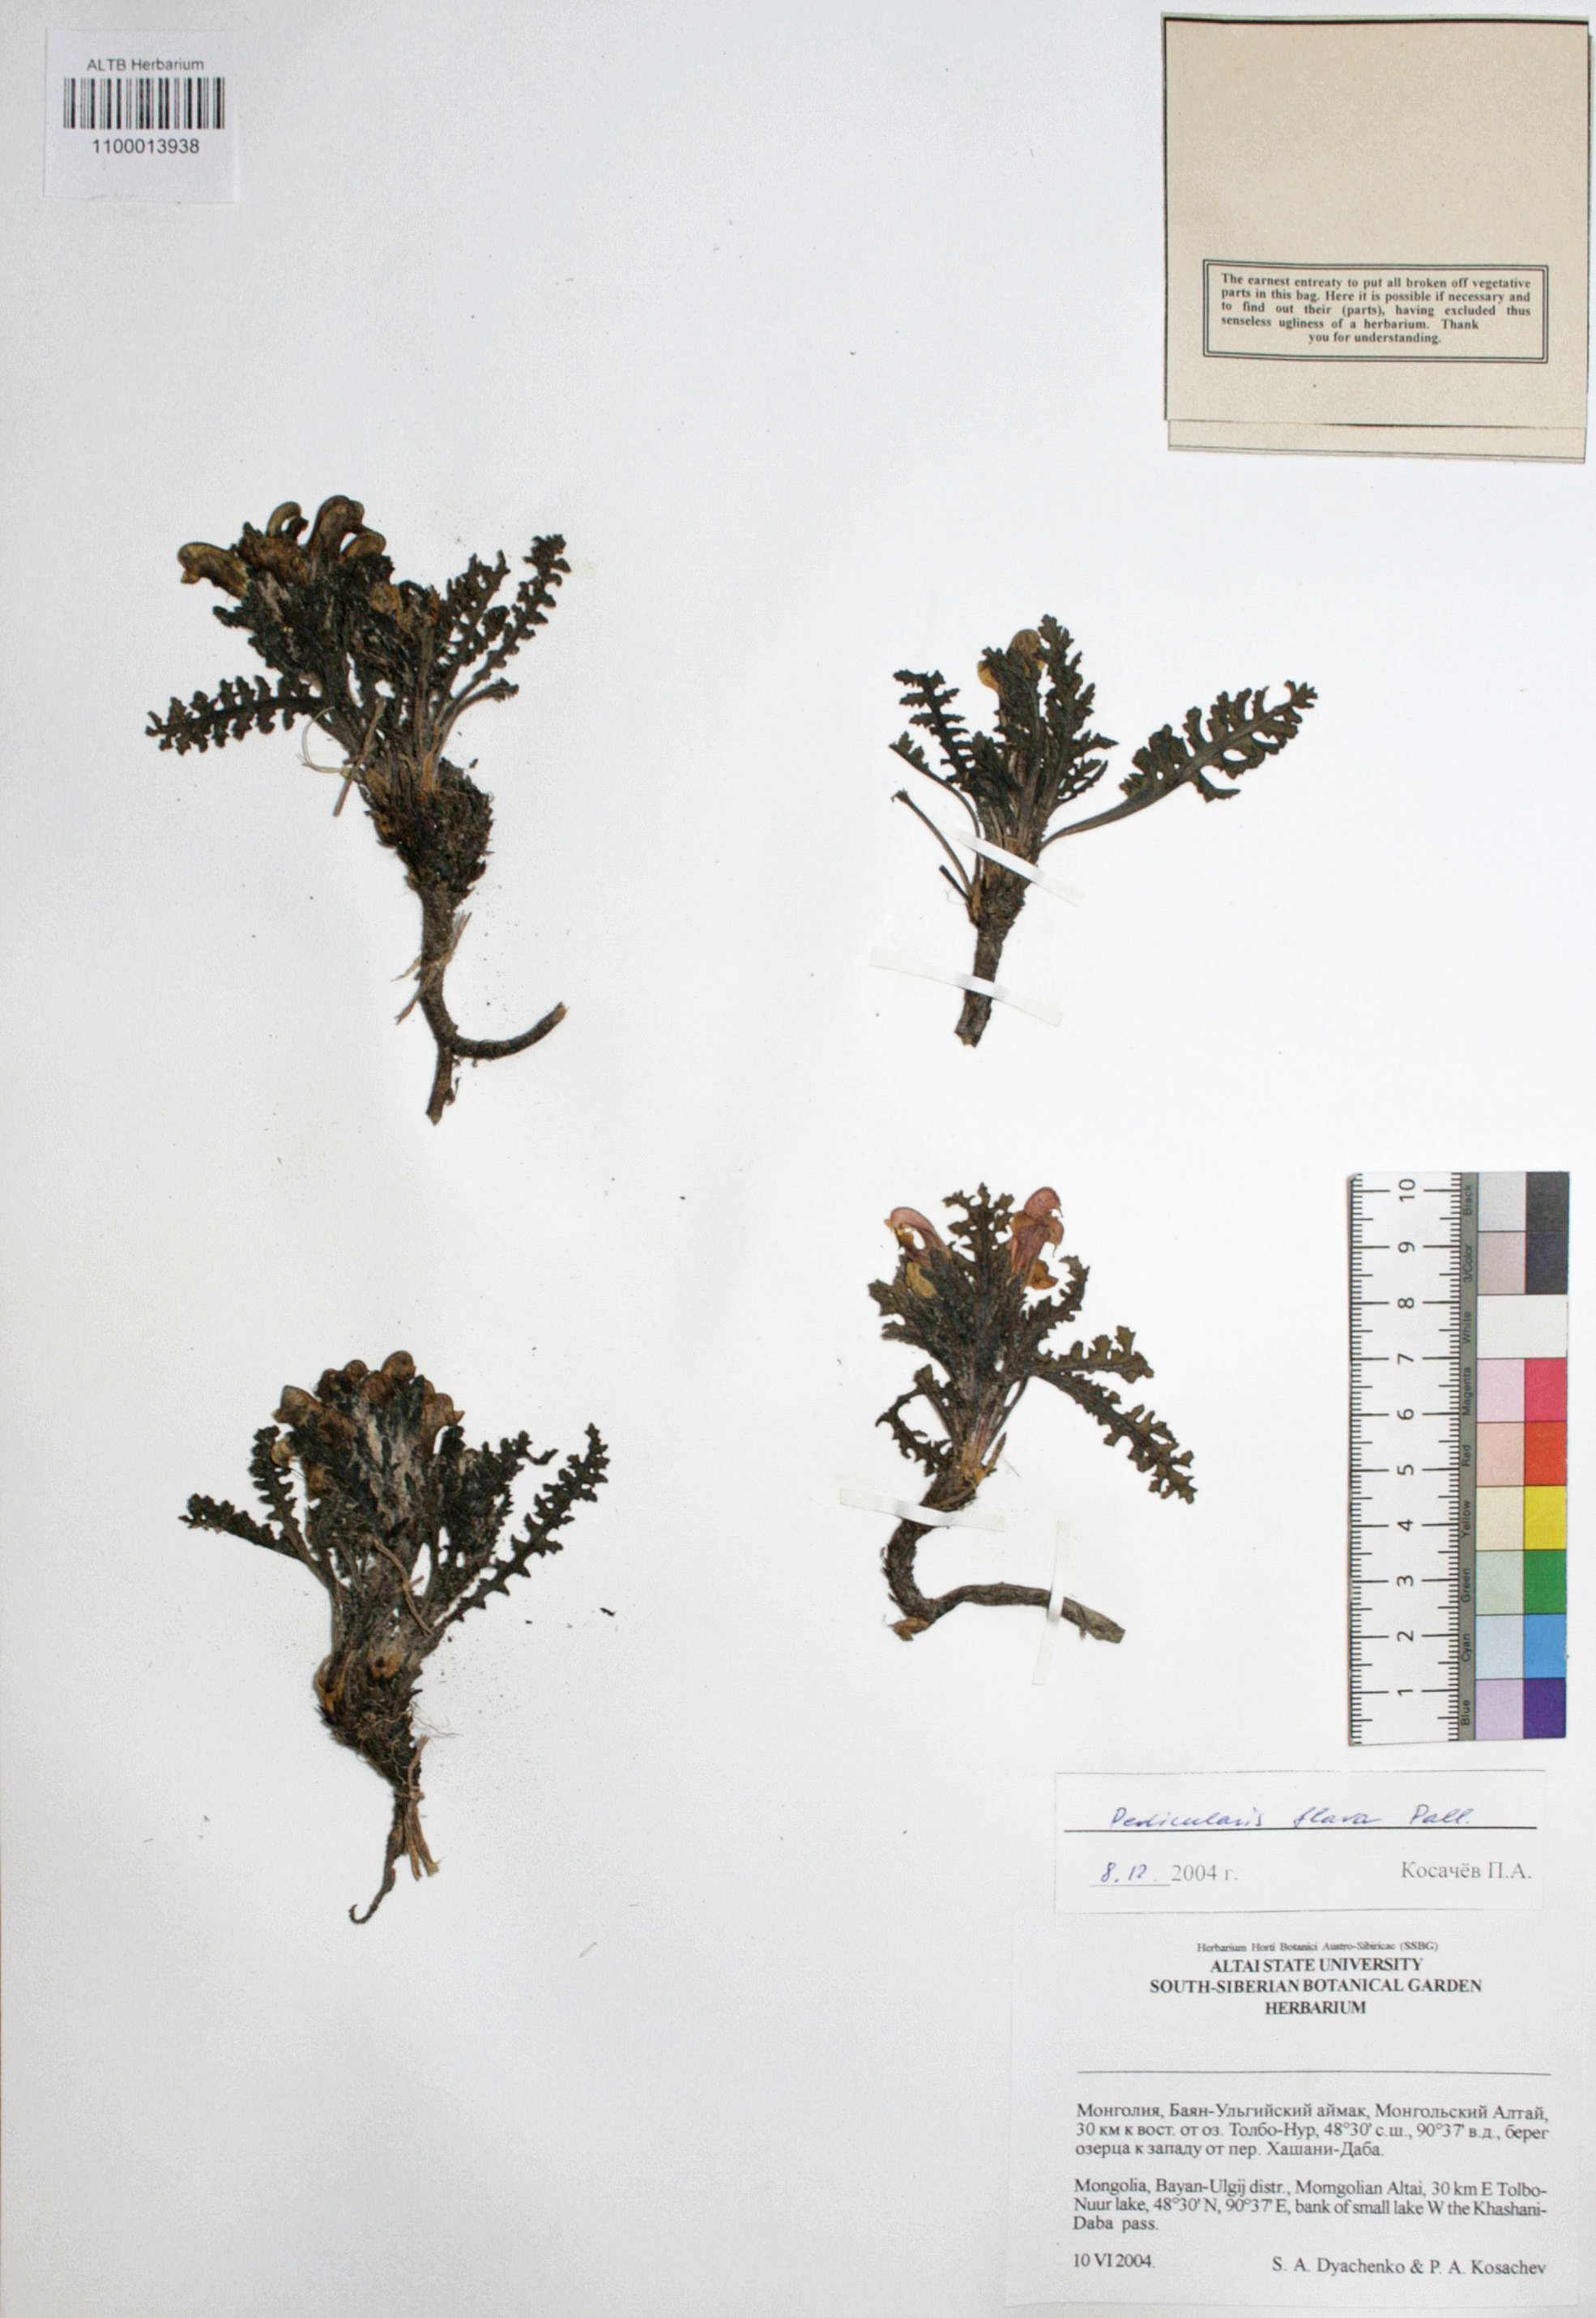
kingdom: Plantae
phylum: Tracheophyta
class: Magnoliopsida
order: Lamiales
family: Orobanchaceae
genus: Pedicularis
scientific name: Pedicularis flava
